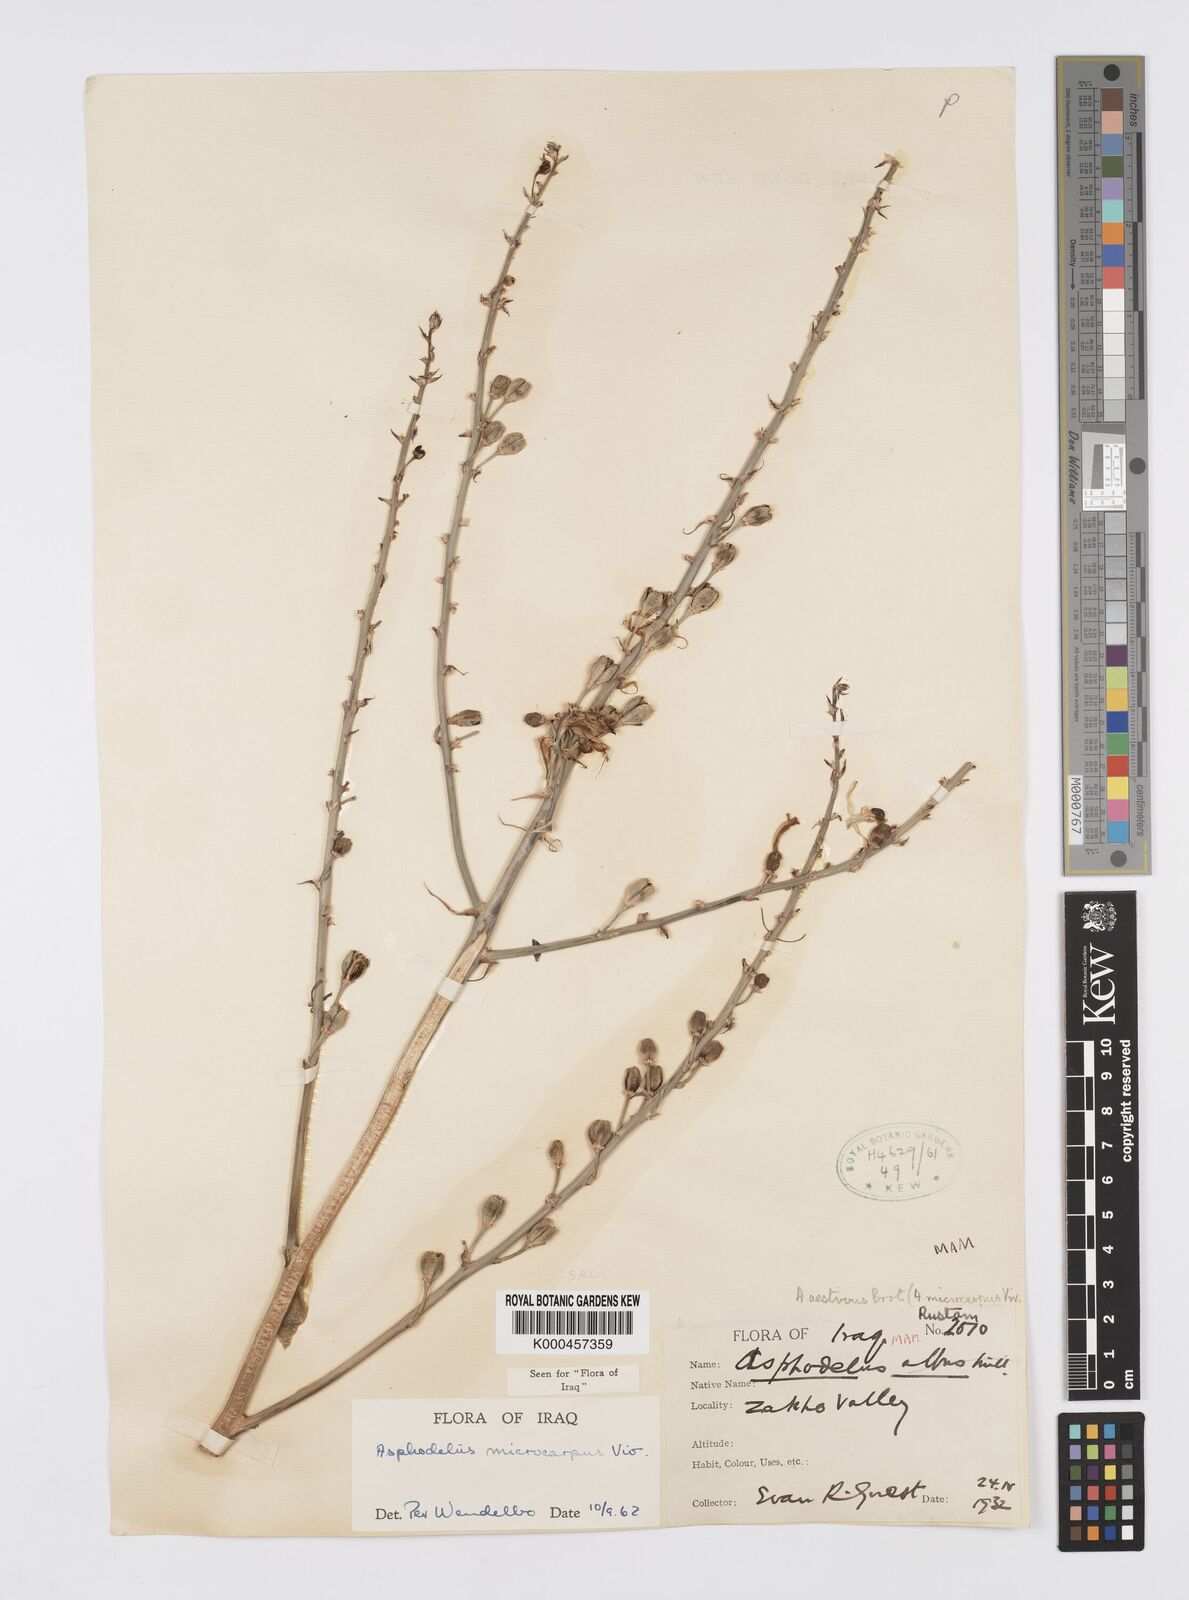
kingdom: Plantae
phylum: Tracheophyta
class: Liliopsida
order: Asparagales
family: Asphodelaceae
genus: Asphodelus
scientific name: Asphodelus aestivus
